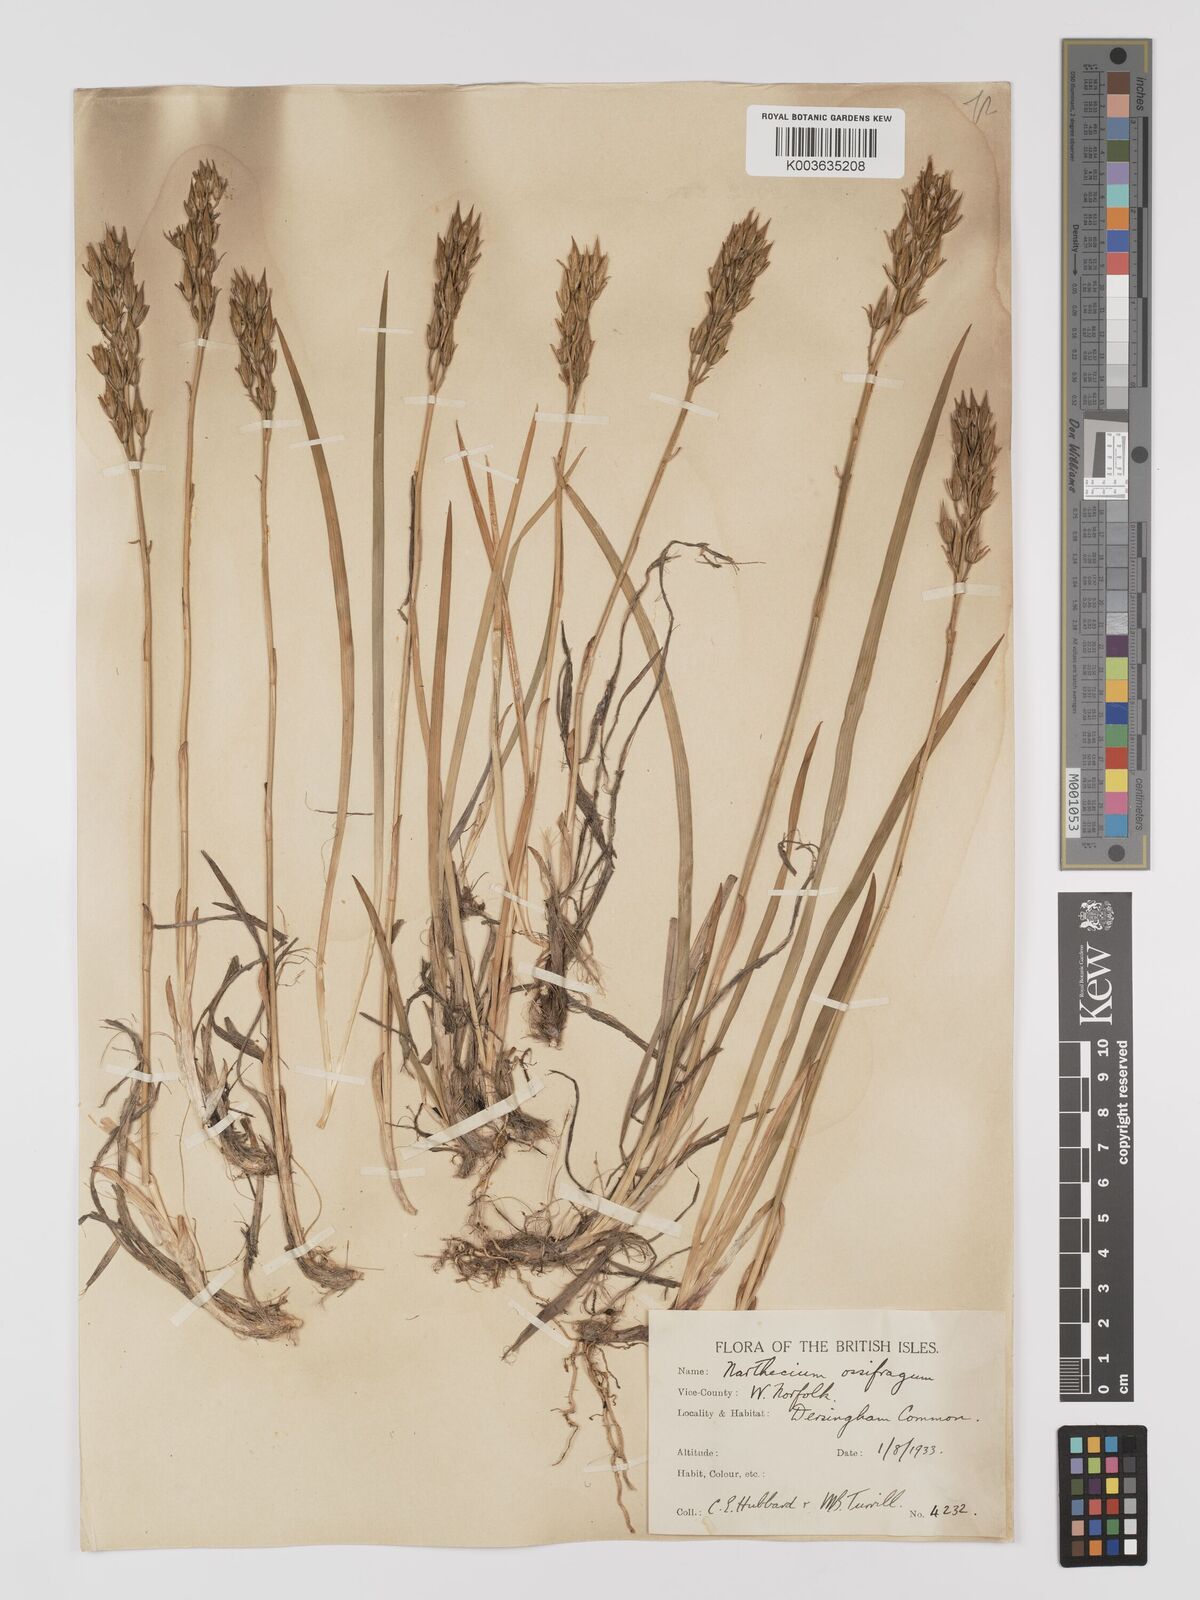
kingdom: Plantae
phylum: Tracheophyta
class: Liliopsida
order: Dioscoreales
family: Nartheciaceae
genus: Narthecium
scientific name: Narthecium
